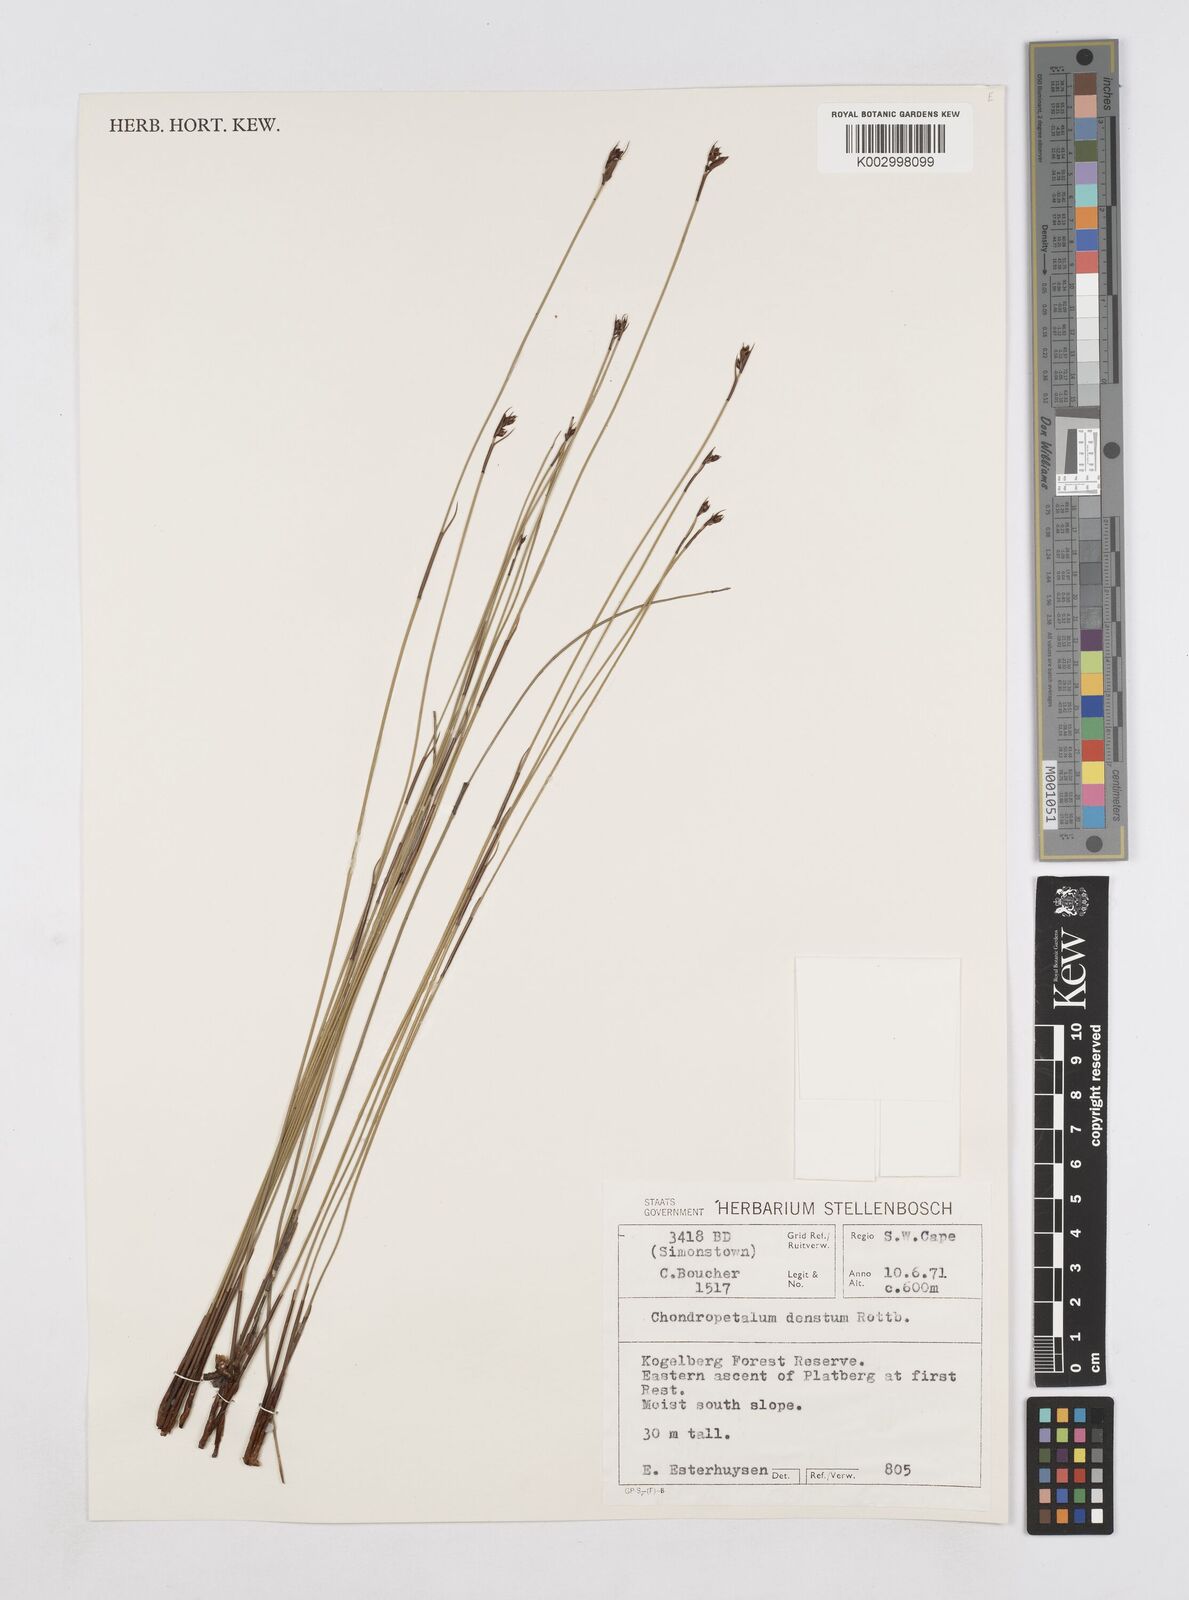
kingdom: Plantae
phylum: Tracheophyta
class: Liliopsida
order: Poales
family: Restionaceae
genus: Elegia
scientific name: Elegia deusta
